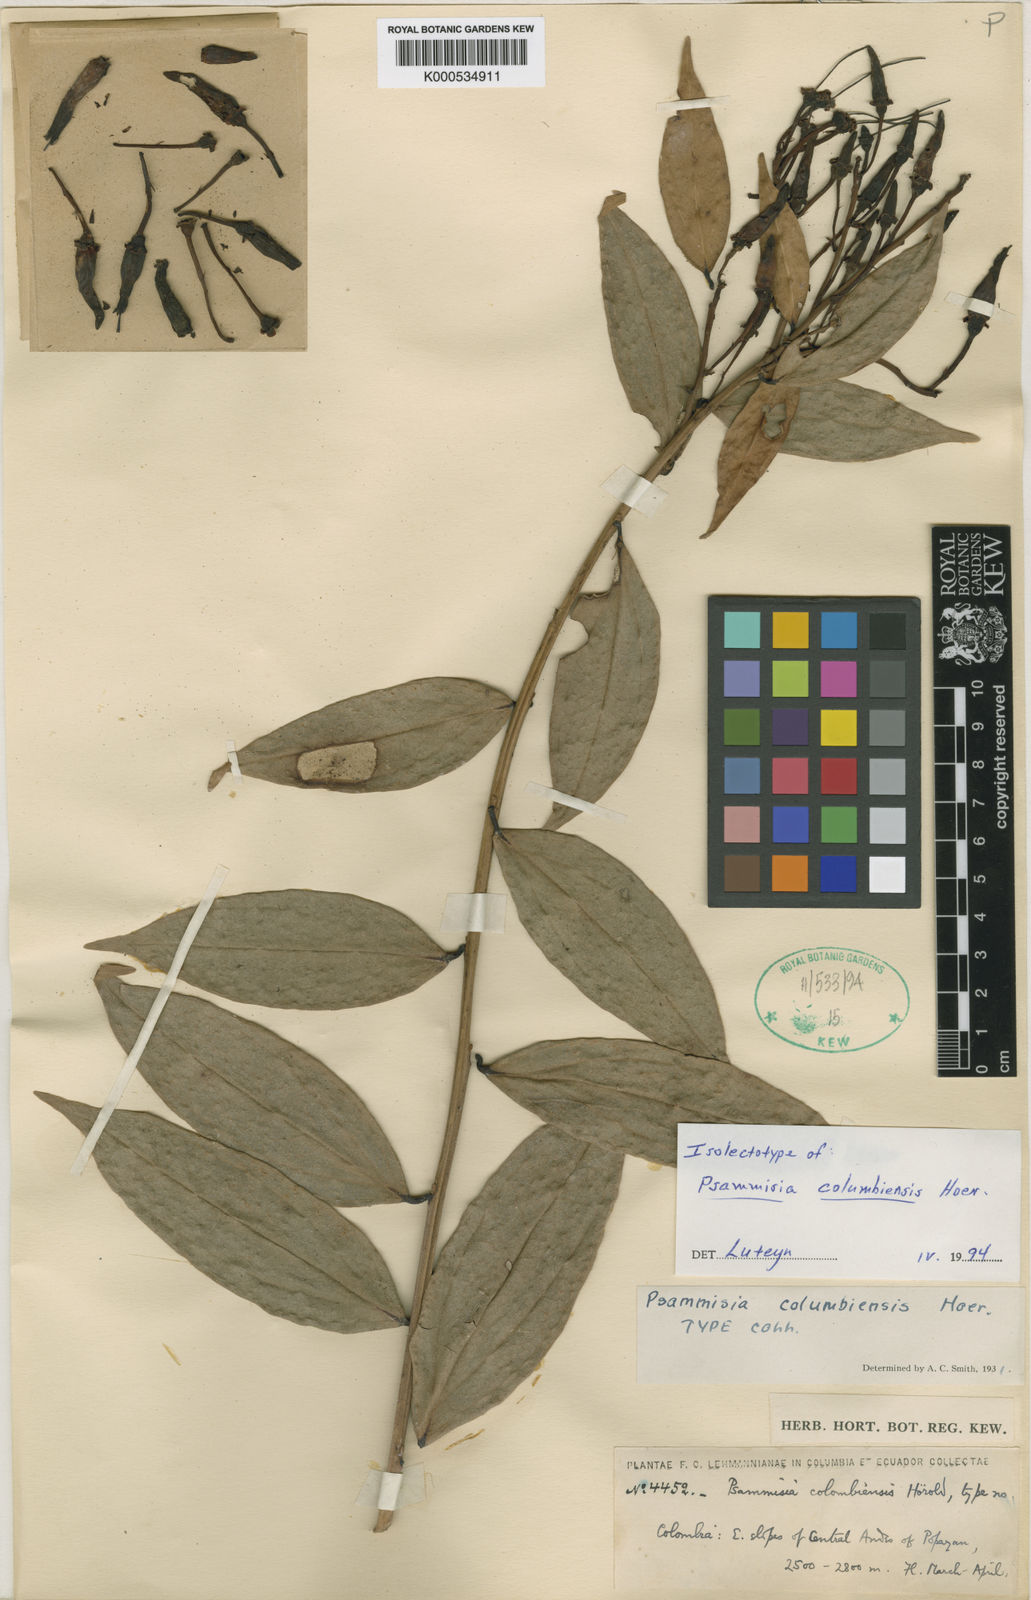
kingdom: Plantae
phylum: Tracheophyta
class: Magnoliopsida
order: Ericales
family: Ericaceae
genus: Psammisia
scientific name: Psammisia columbiensis
